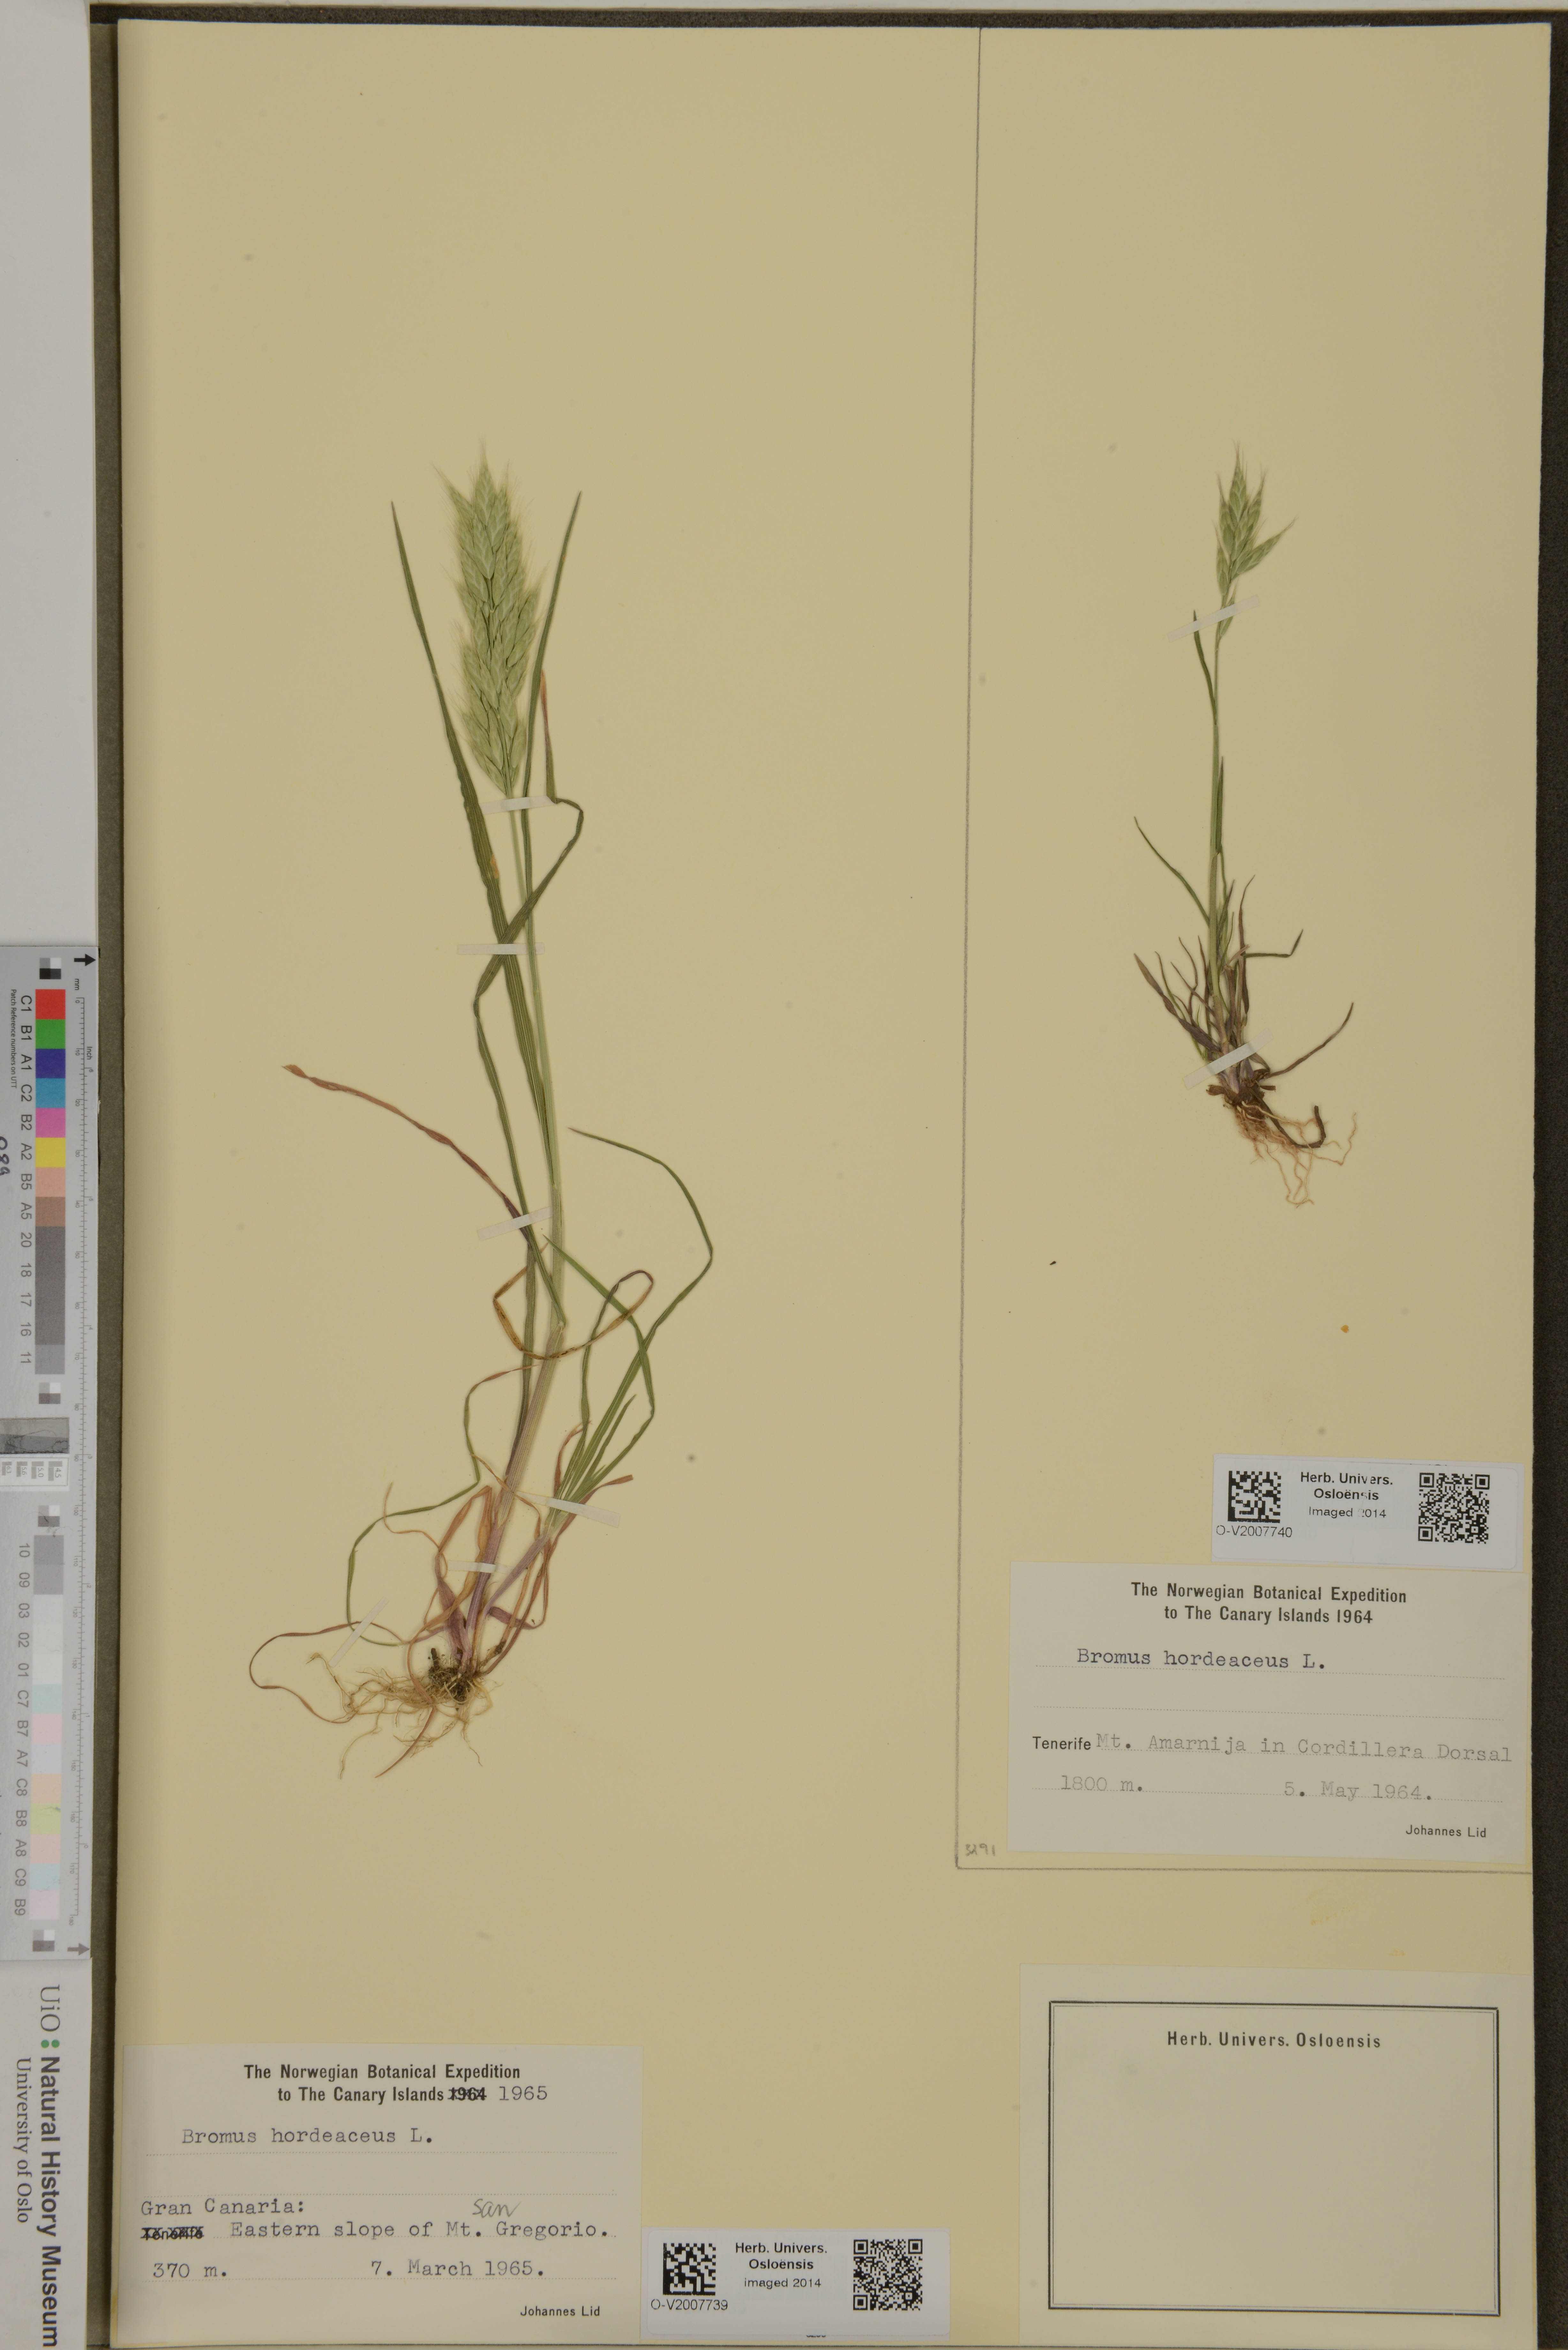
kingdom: Plantae
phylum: Tracheophyta
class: Liliopsida
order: Poales
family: Poaceae
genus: Bromus
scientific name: Bromus hordeaceus
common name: Soft brome
